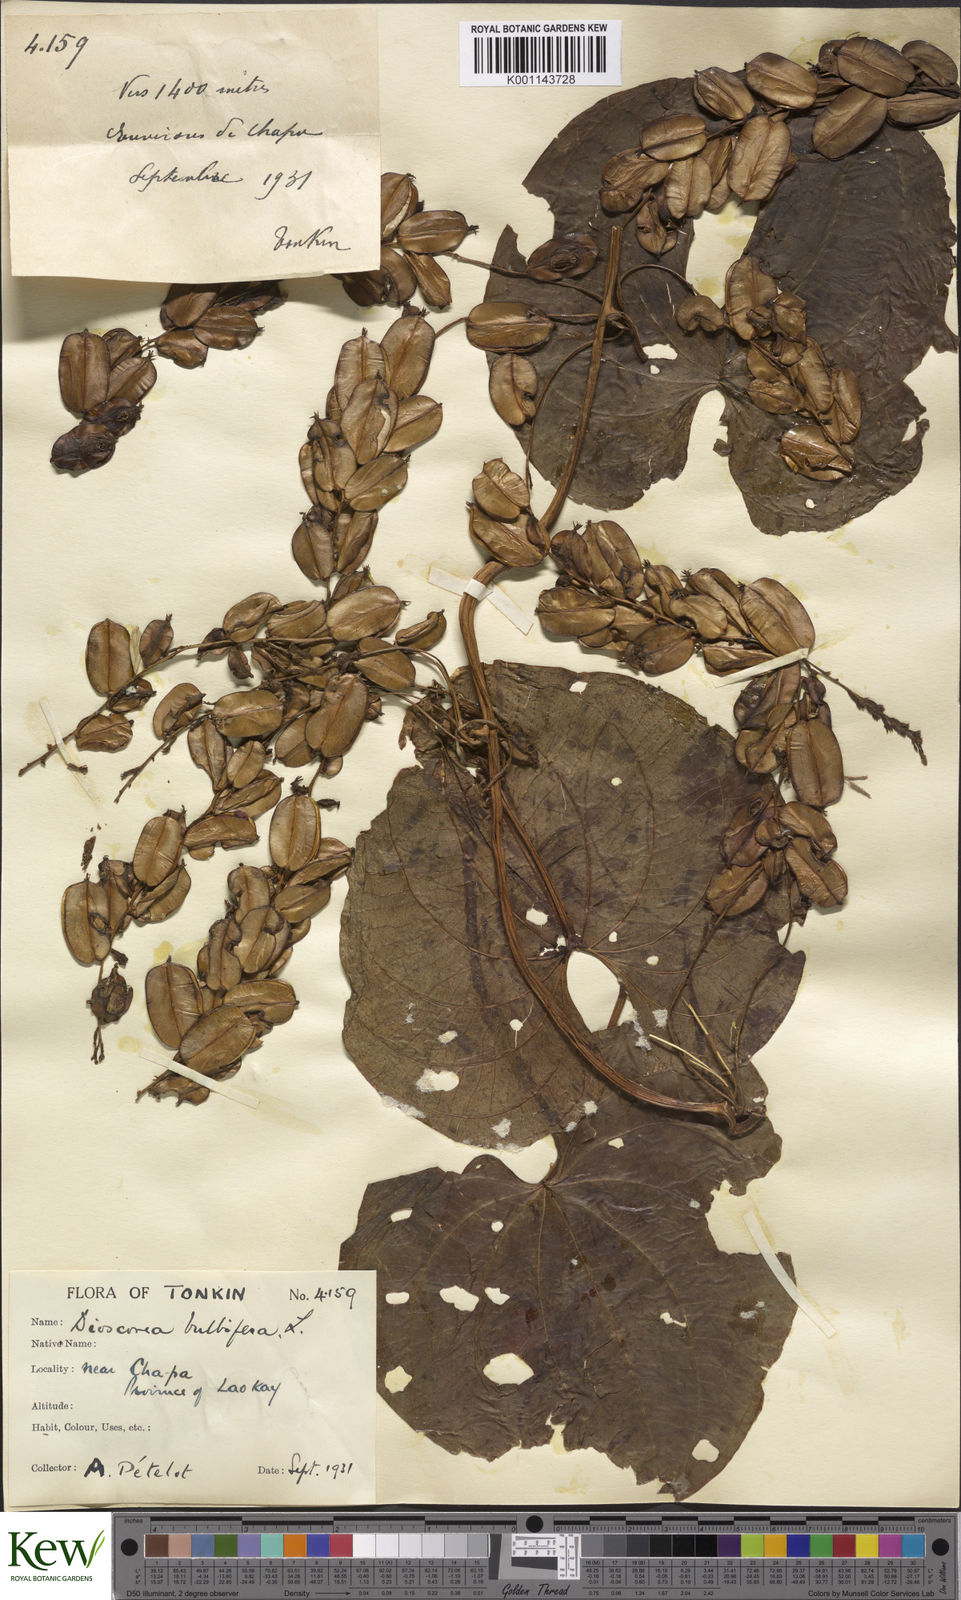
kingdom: Plantae
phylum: Tracheophyta
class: Liliopsida
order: Dioscoreales
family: Dioscoreaceae
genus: Dioscorea
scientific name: Dioscorea bulbifera
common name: Air yam
